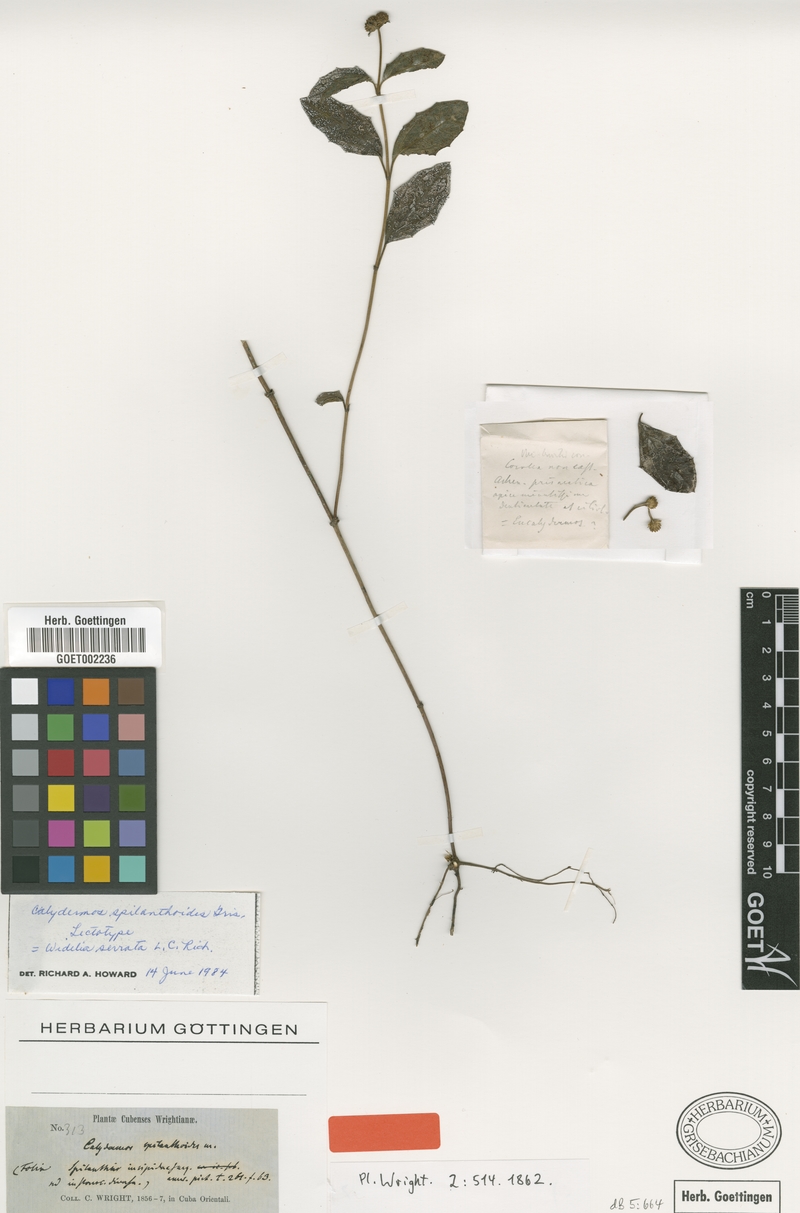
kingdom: Plantae
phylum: Tracheophyta
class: Magnoliopsida
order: Asterales
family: Asteraceae
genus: Wedelia
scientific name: Wedelia serrata
